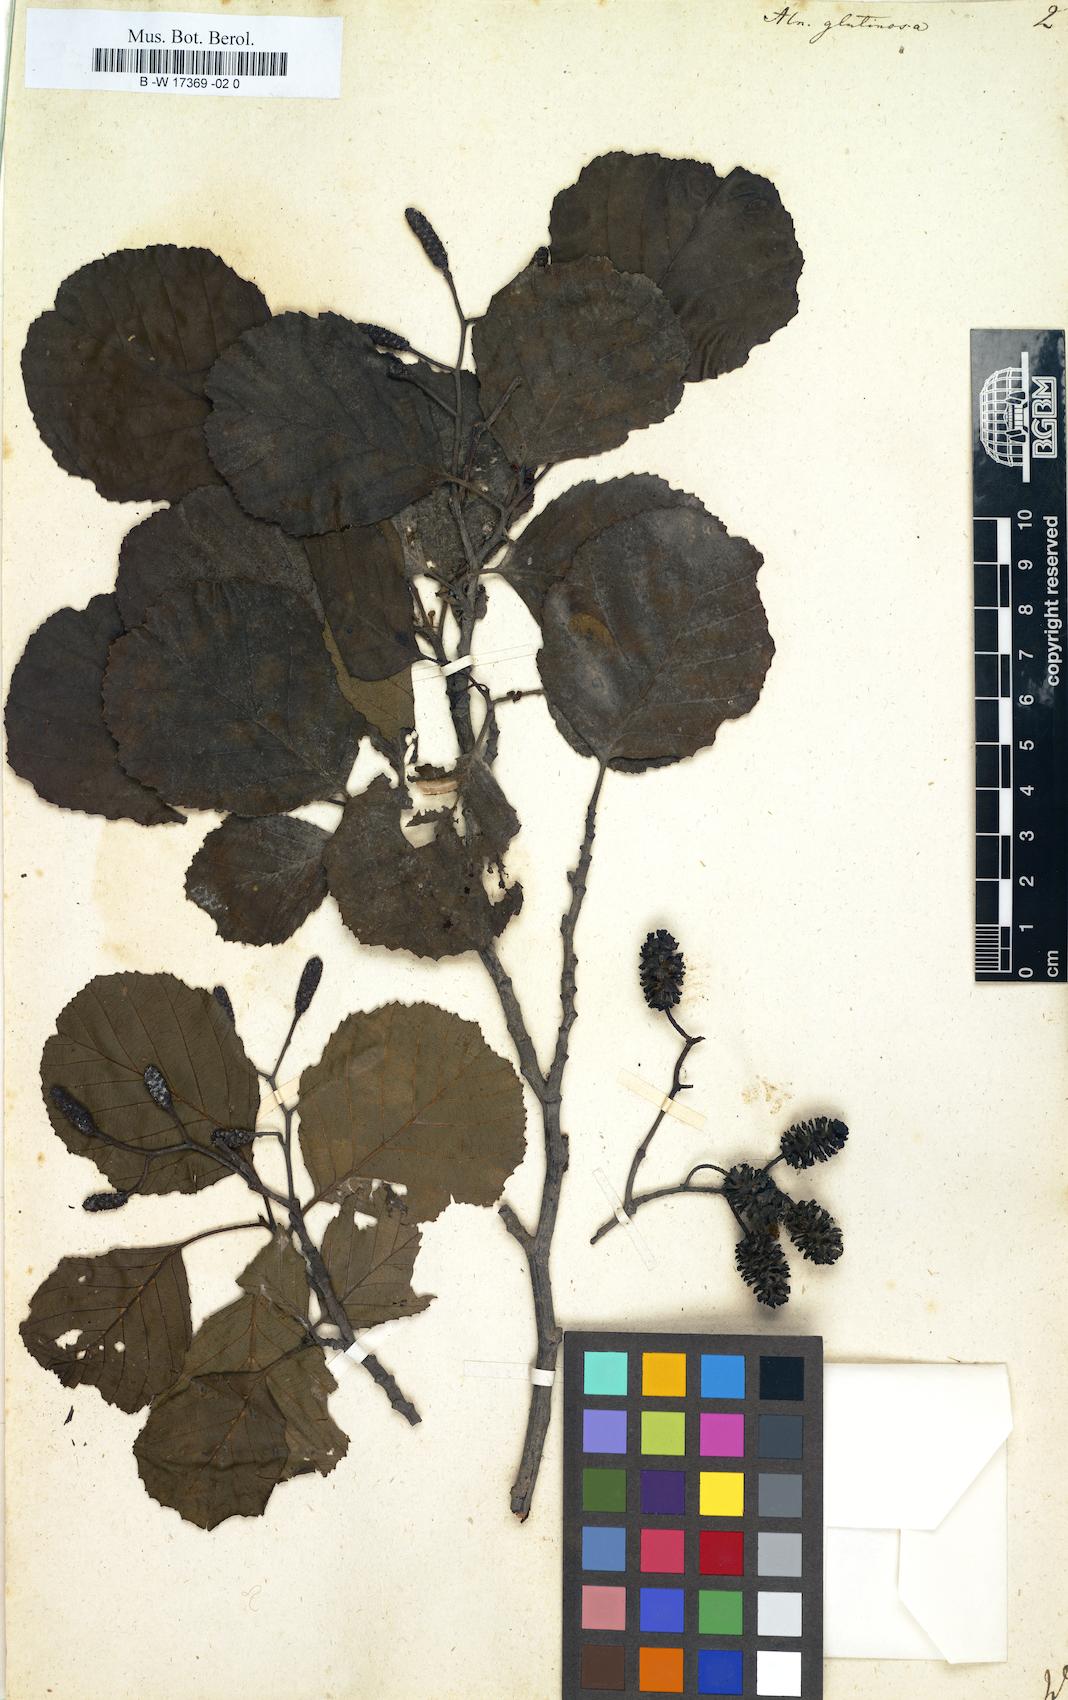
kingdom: Plantae
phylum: Tracheophyta
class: Magnoliopsida
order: Fagales
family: Betulaceae
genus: Alnus
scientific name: Alnus glutinosa
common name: Black alder
